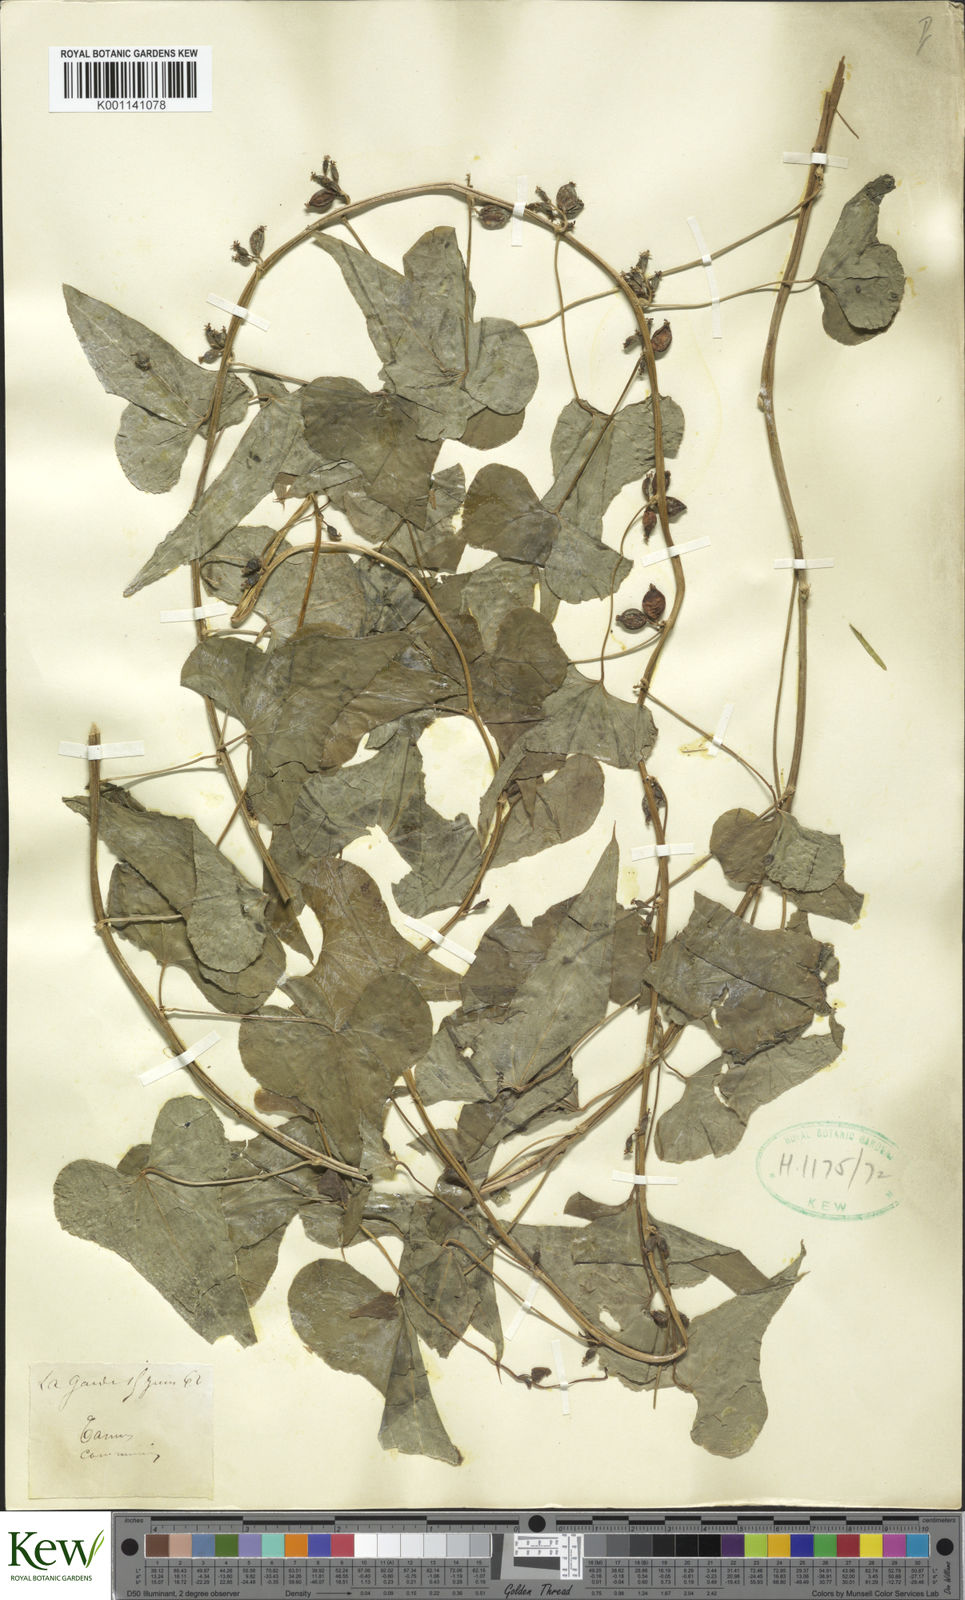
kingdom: Plantae
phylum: Tracheophyta
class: Liliopsida
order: Dioscoreales
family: Dioscoreaceae
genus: Dioscorea
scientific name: Dioscorea communis
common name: Black-bindweed
